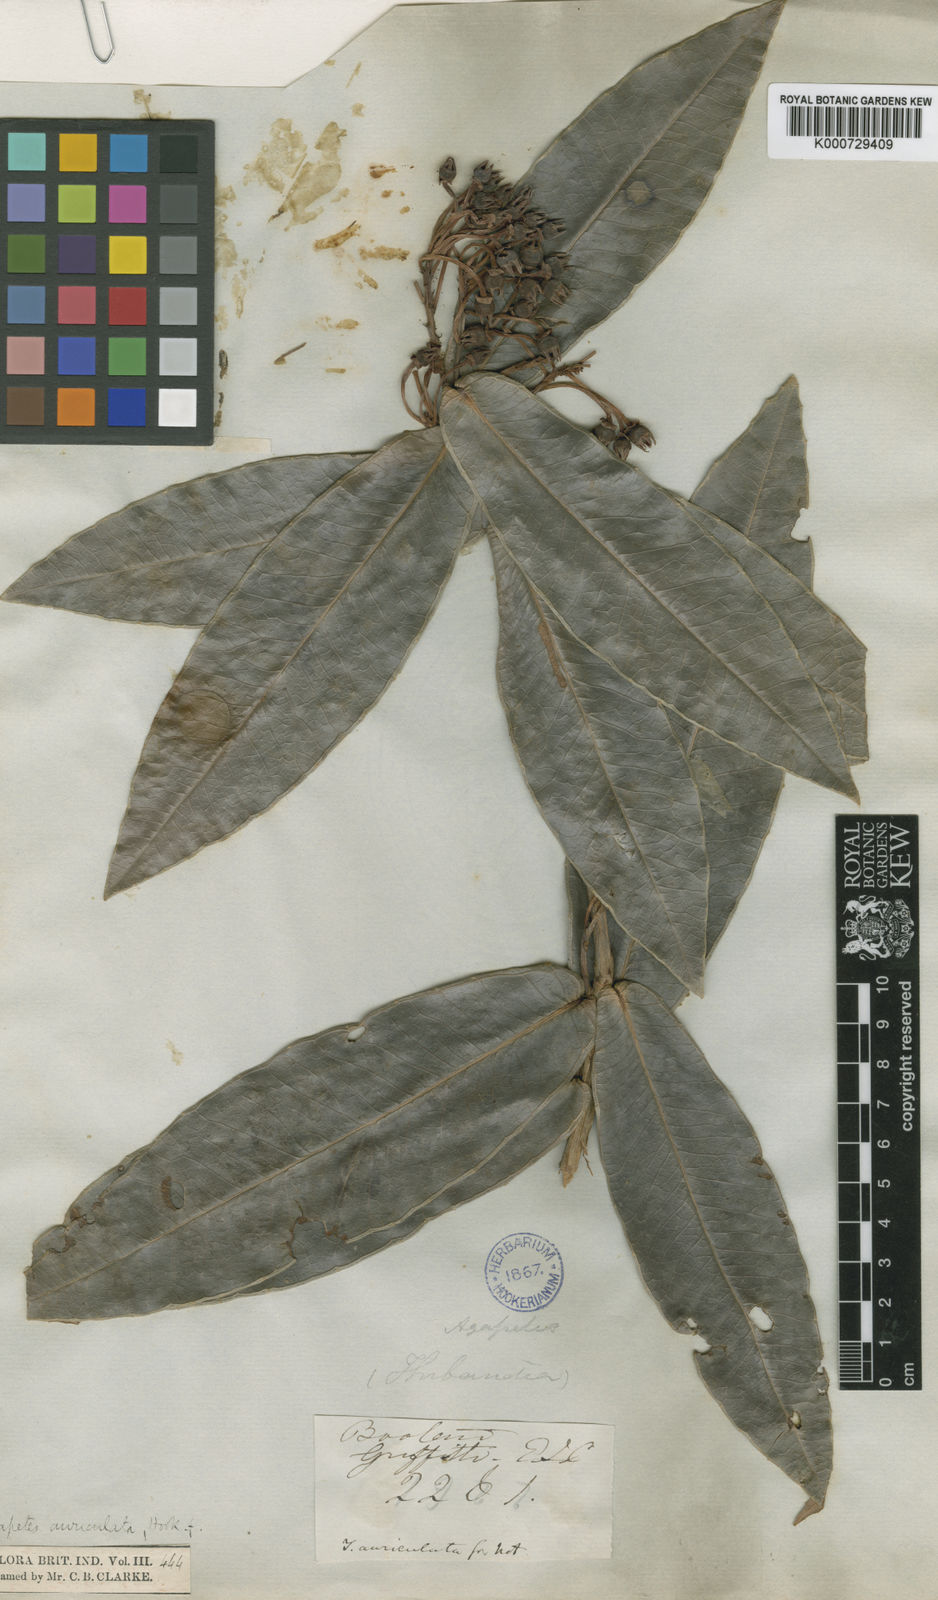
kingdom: Plantae
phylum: Tracheophyta
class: Magnoliopsida
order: Ericales
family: Ericaceae
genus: Agapetes
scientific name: Agapetes auriculata
